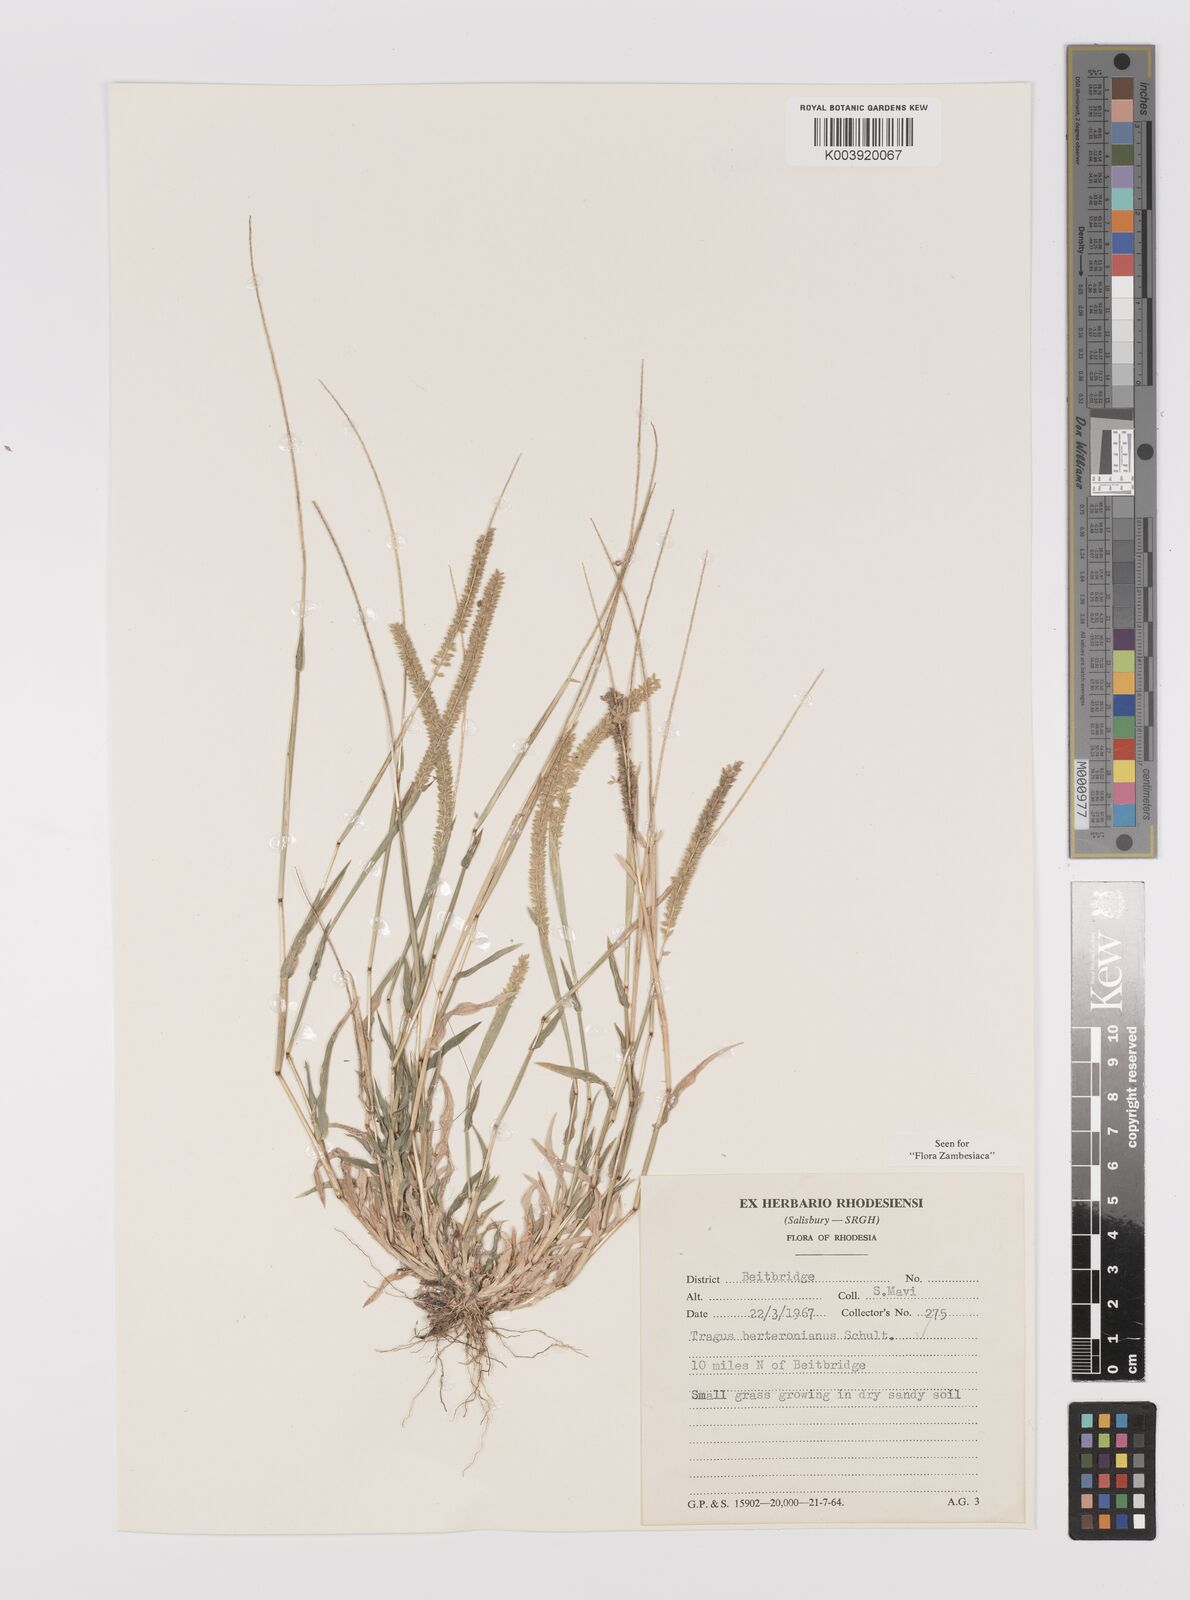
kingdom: Plantae
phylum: Tracheophyta
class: Liliopsida
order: Poales
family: Poaceae
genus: Tragus
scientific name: Tragus berteronianus
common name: African bur-grass
